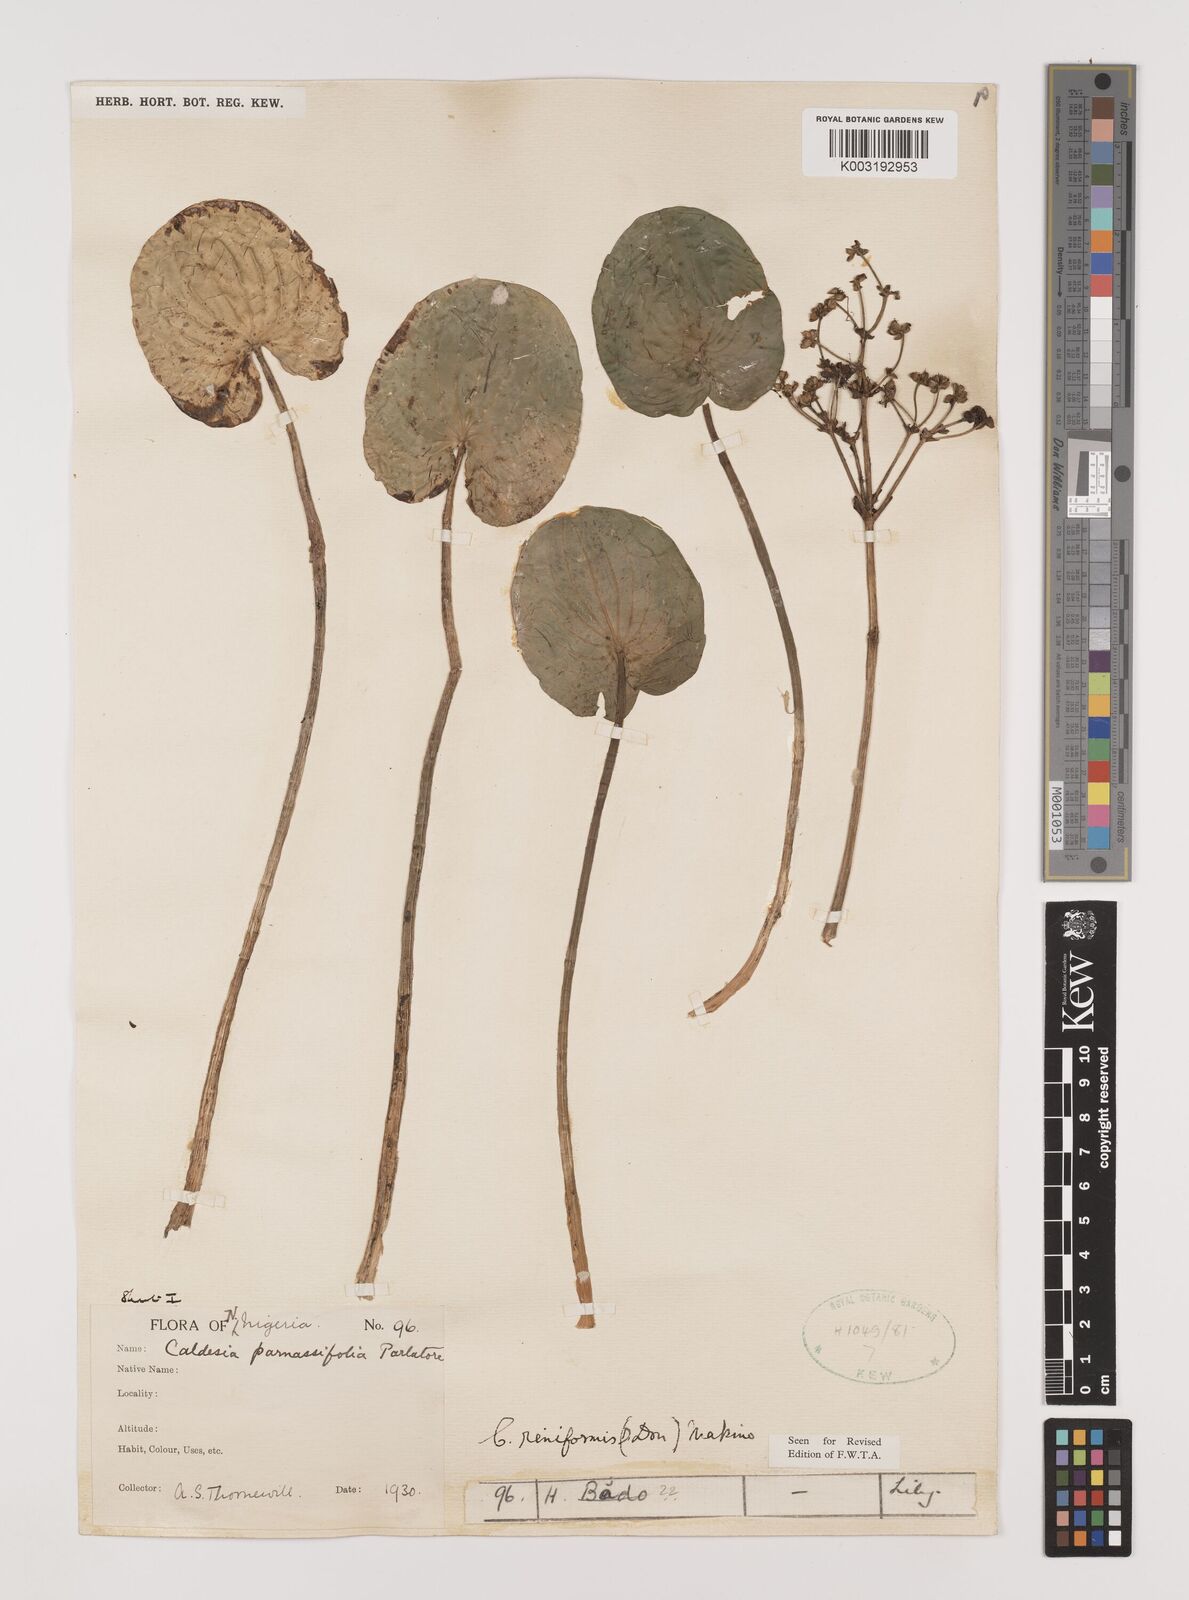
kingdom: Plantae
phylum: Tracheophyta
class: Liliopsida
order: Alismatales
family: Alismataceae
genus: Caldesia
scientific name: Caldesia parnassifolia
